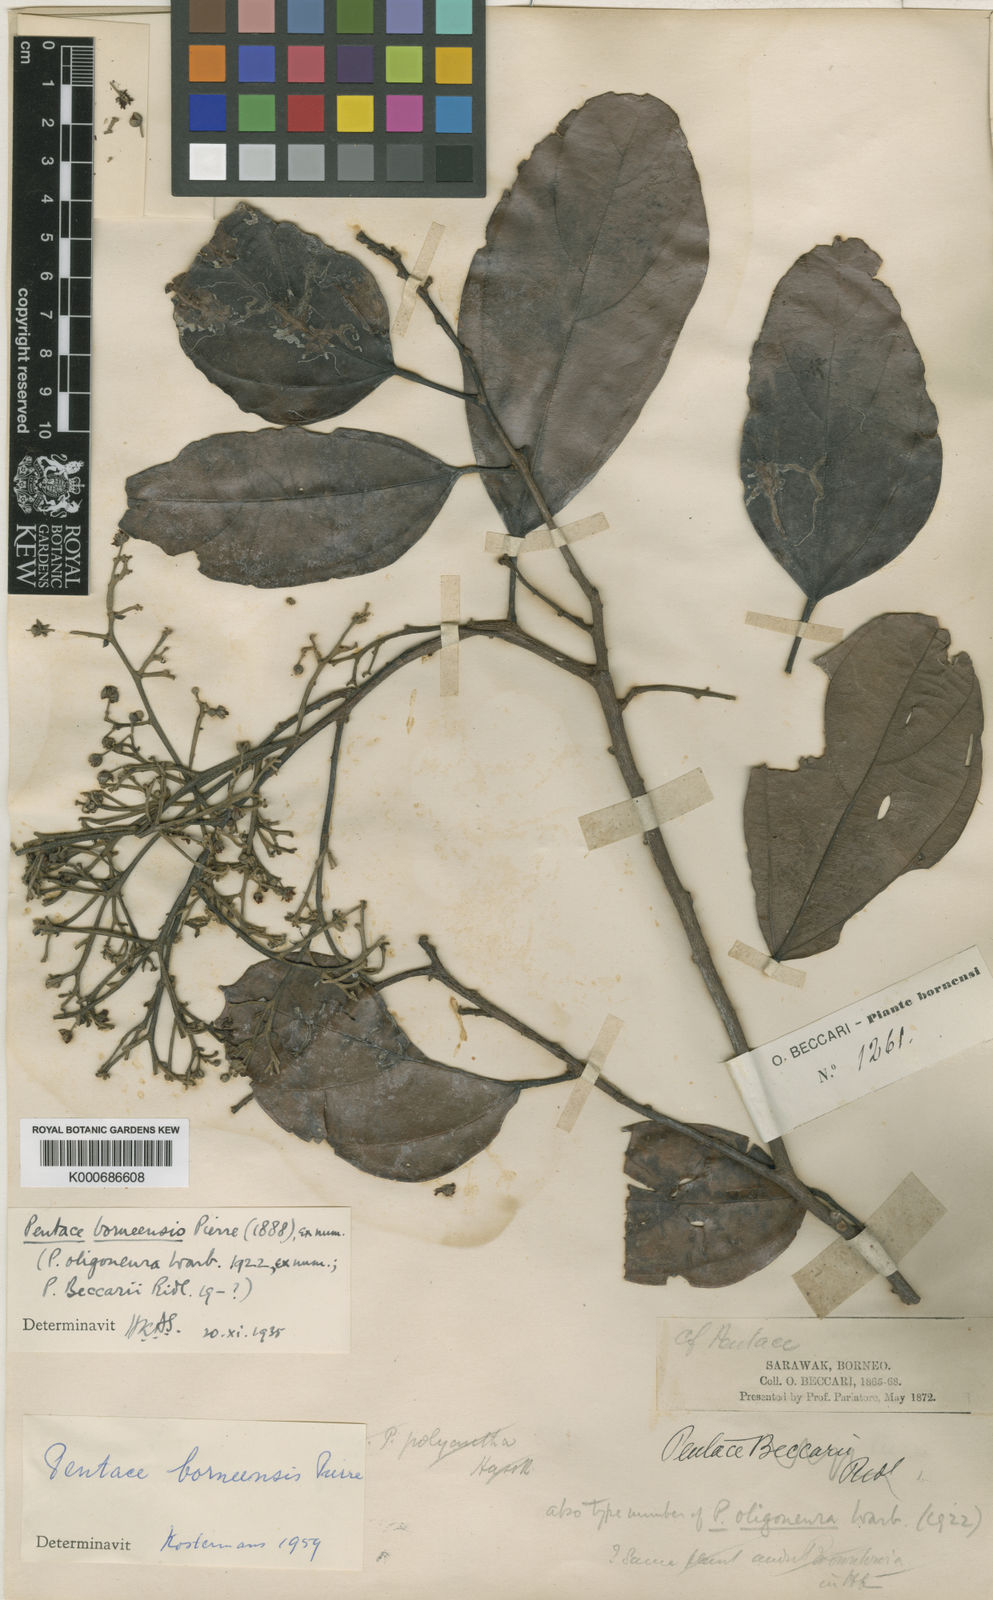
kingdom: Plantae
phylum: Tracheophyta
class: Magnoliopsida
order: Malvales
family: Malvaceae
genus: Pentace
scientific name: Pentace borneensis
